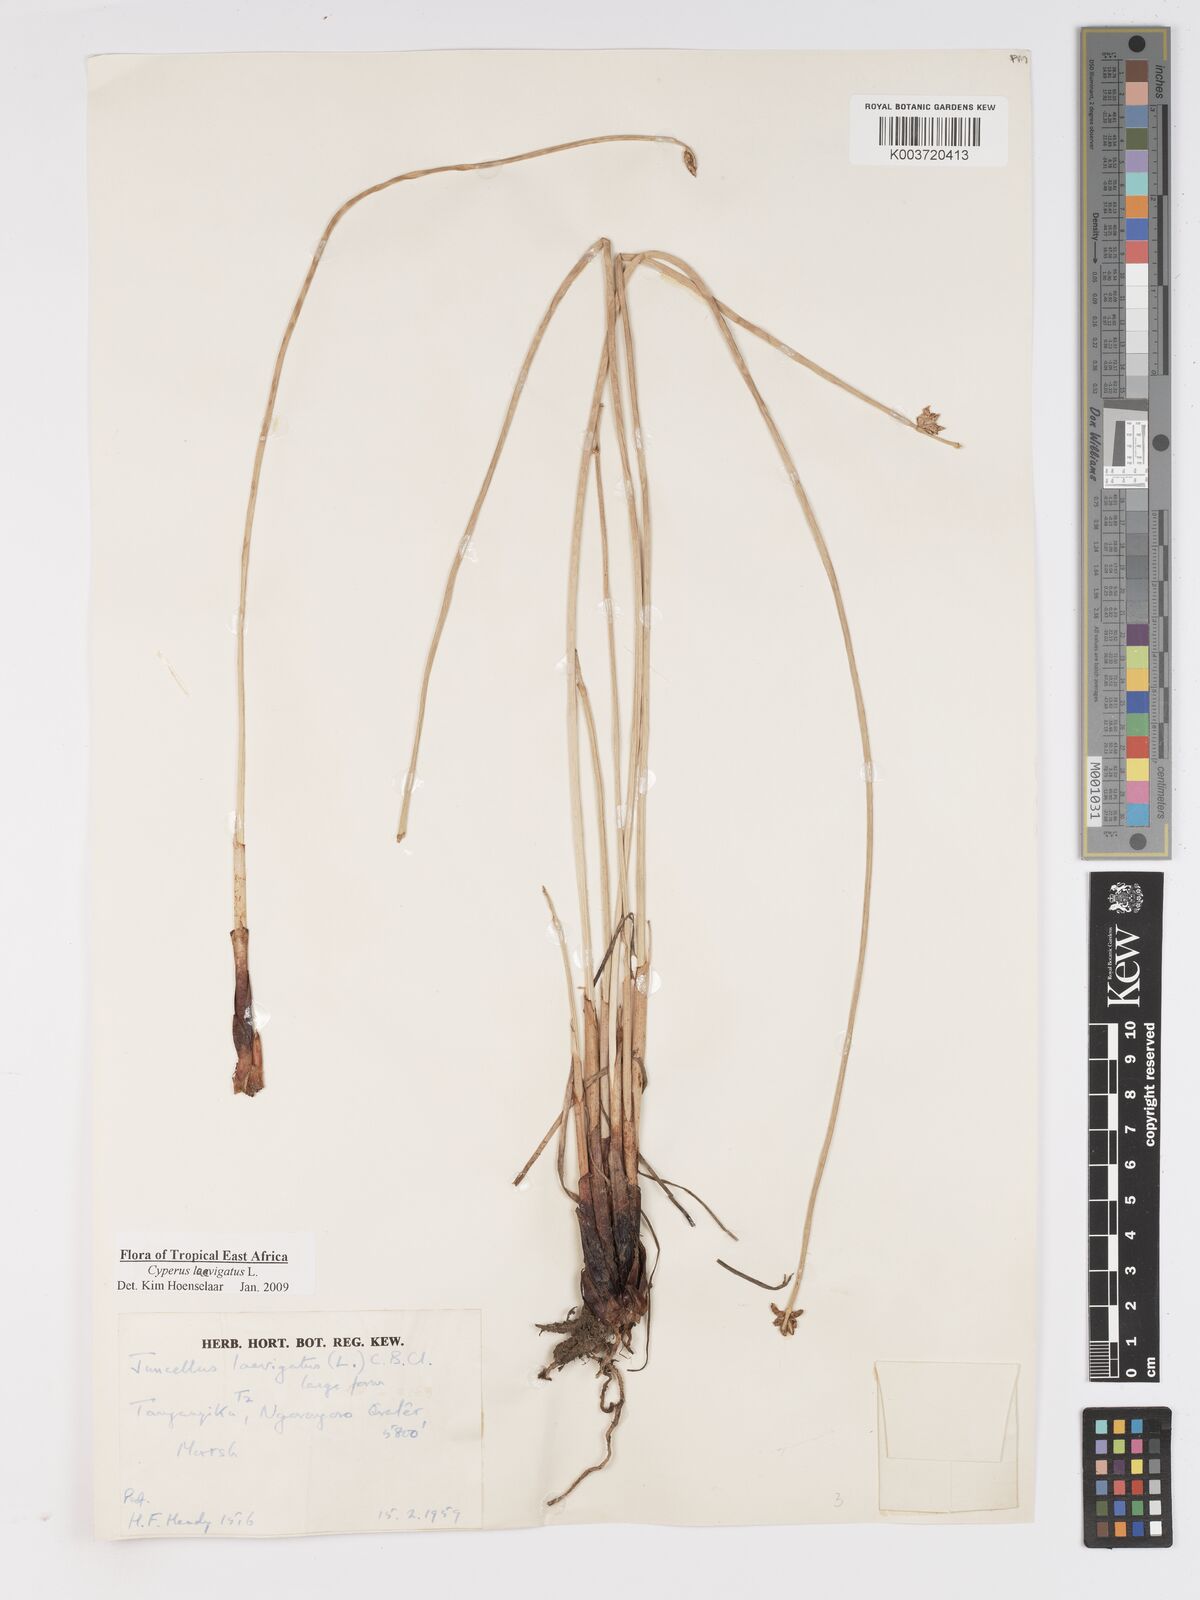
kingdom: Plantae
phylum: Tracheophyta
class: Liliopsida
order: Poales
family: Cyperaceae
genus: Cyperus
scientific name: Cyperus laevigatus
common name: Smooth flat sedge
